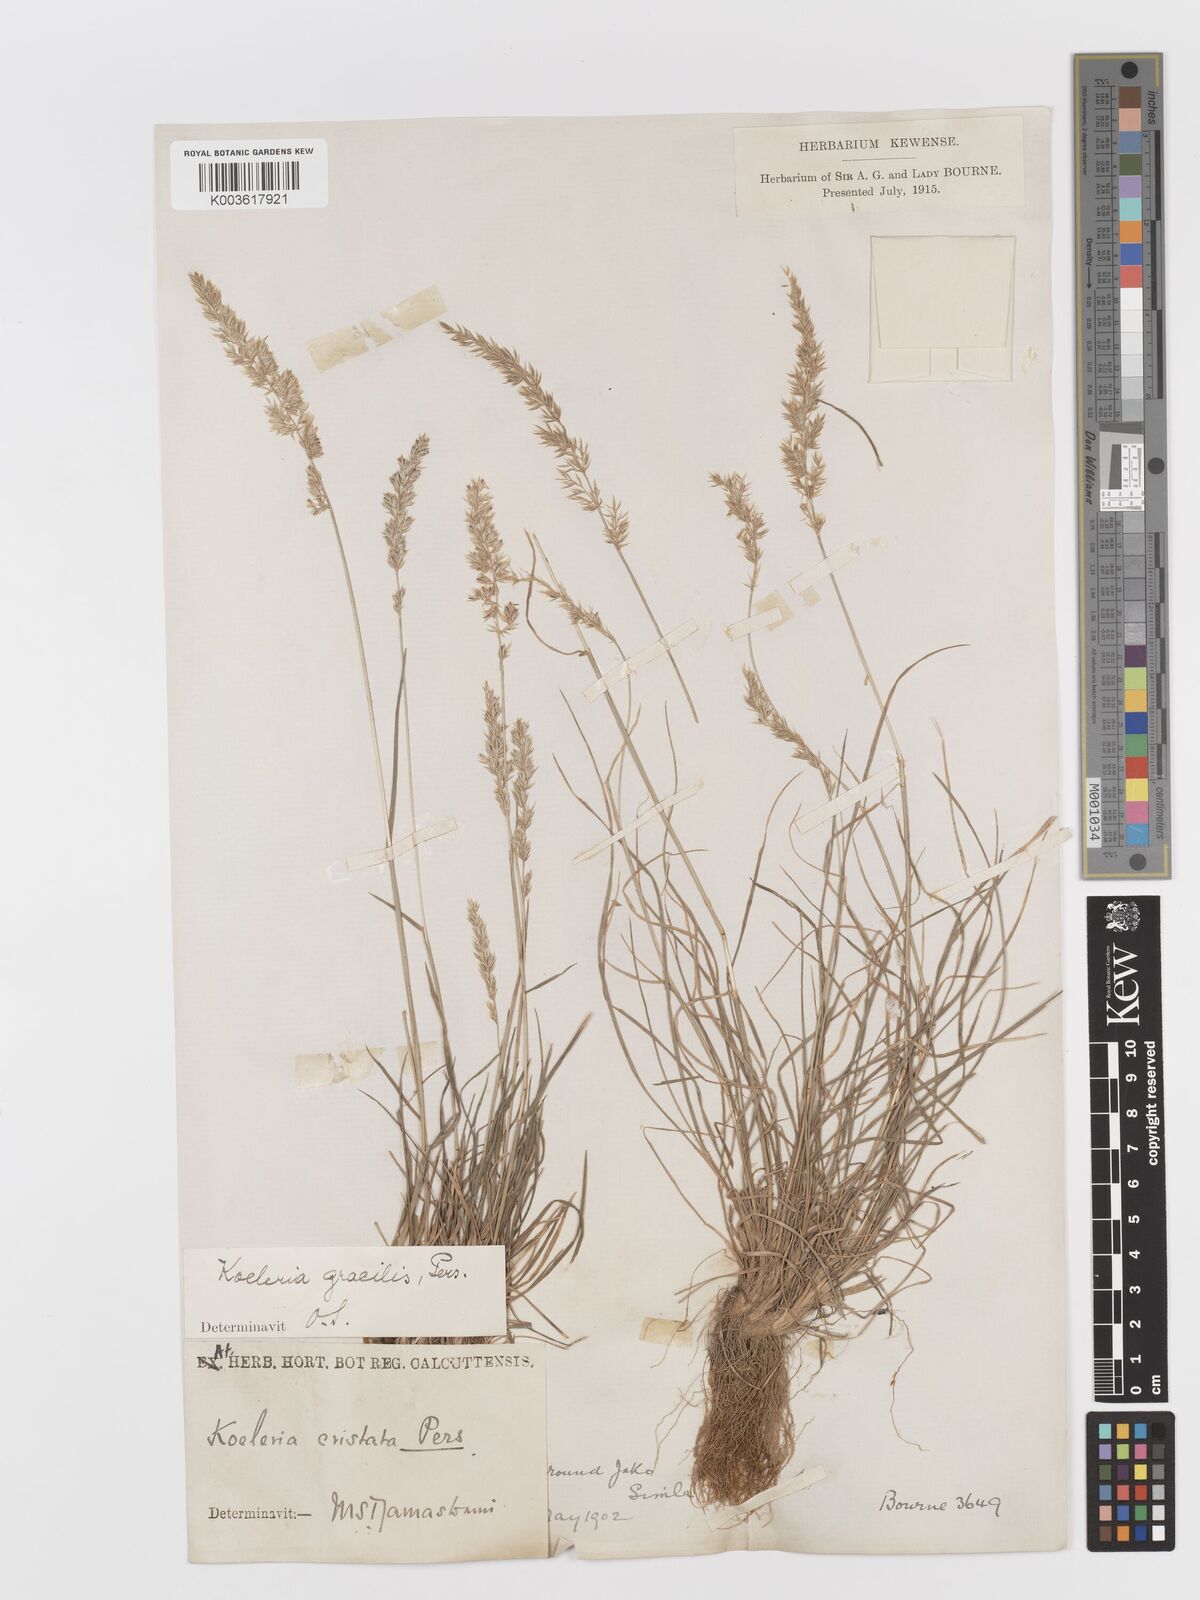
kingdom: Plantae
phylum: Tracheophyta
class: Liliopsida
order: Poales
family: Poaceae
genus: Koeleria
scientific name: Koeleria
